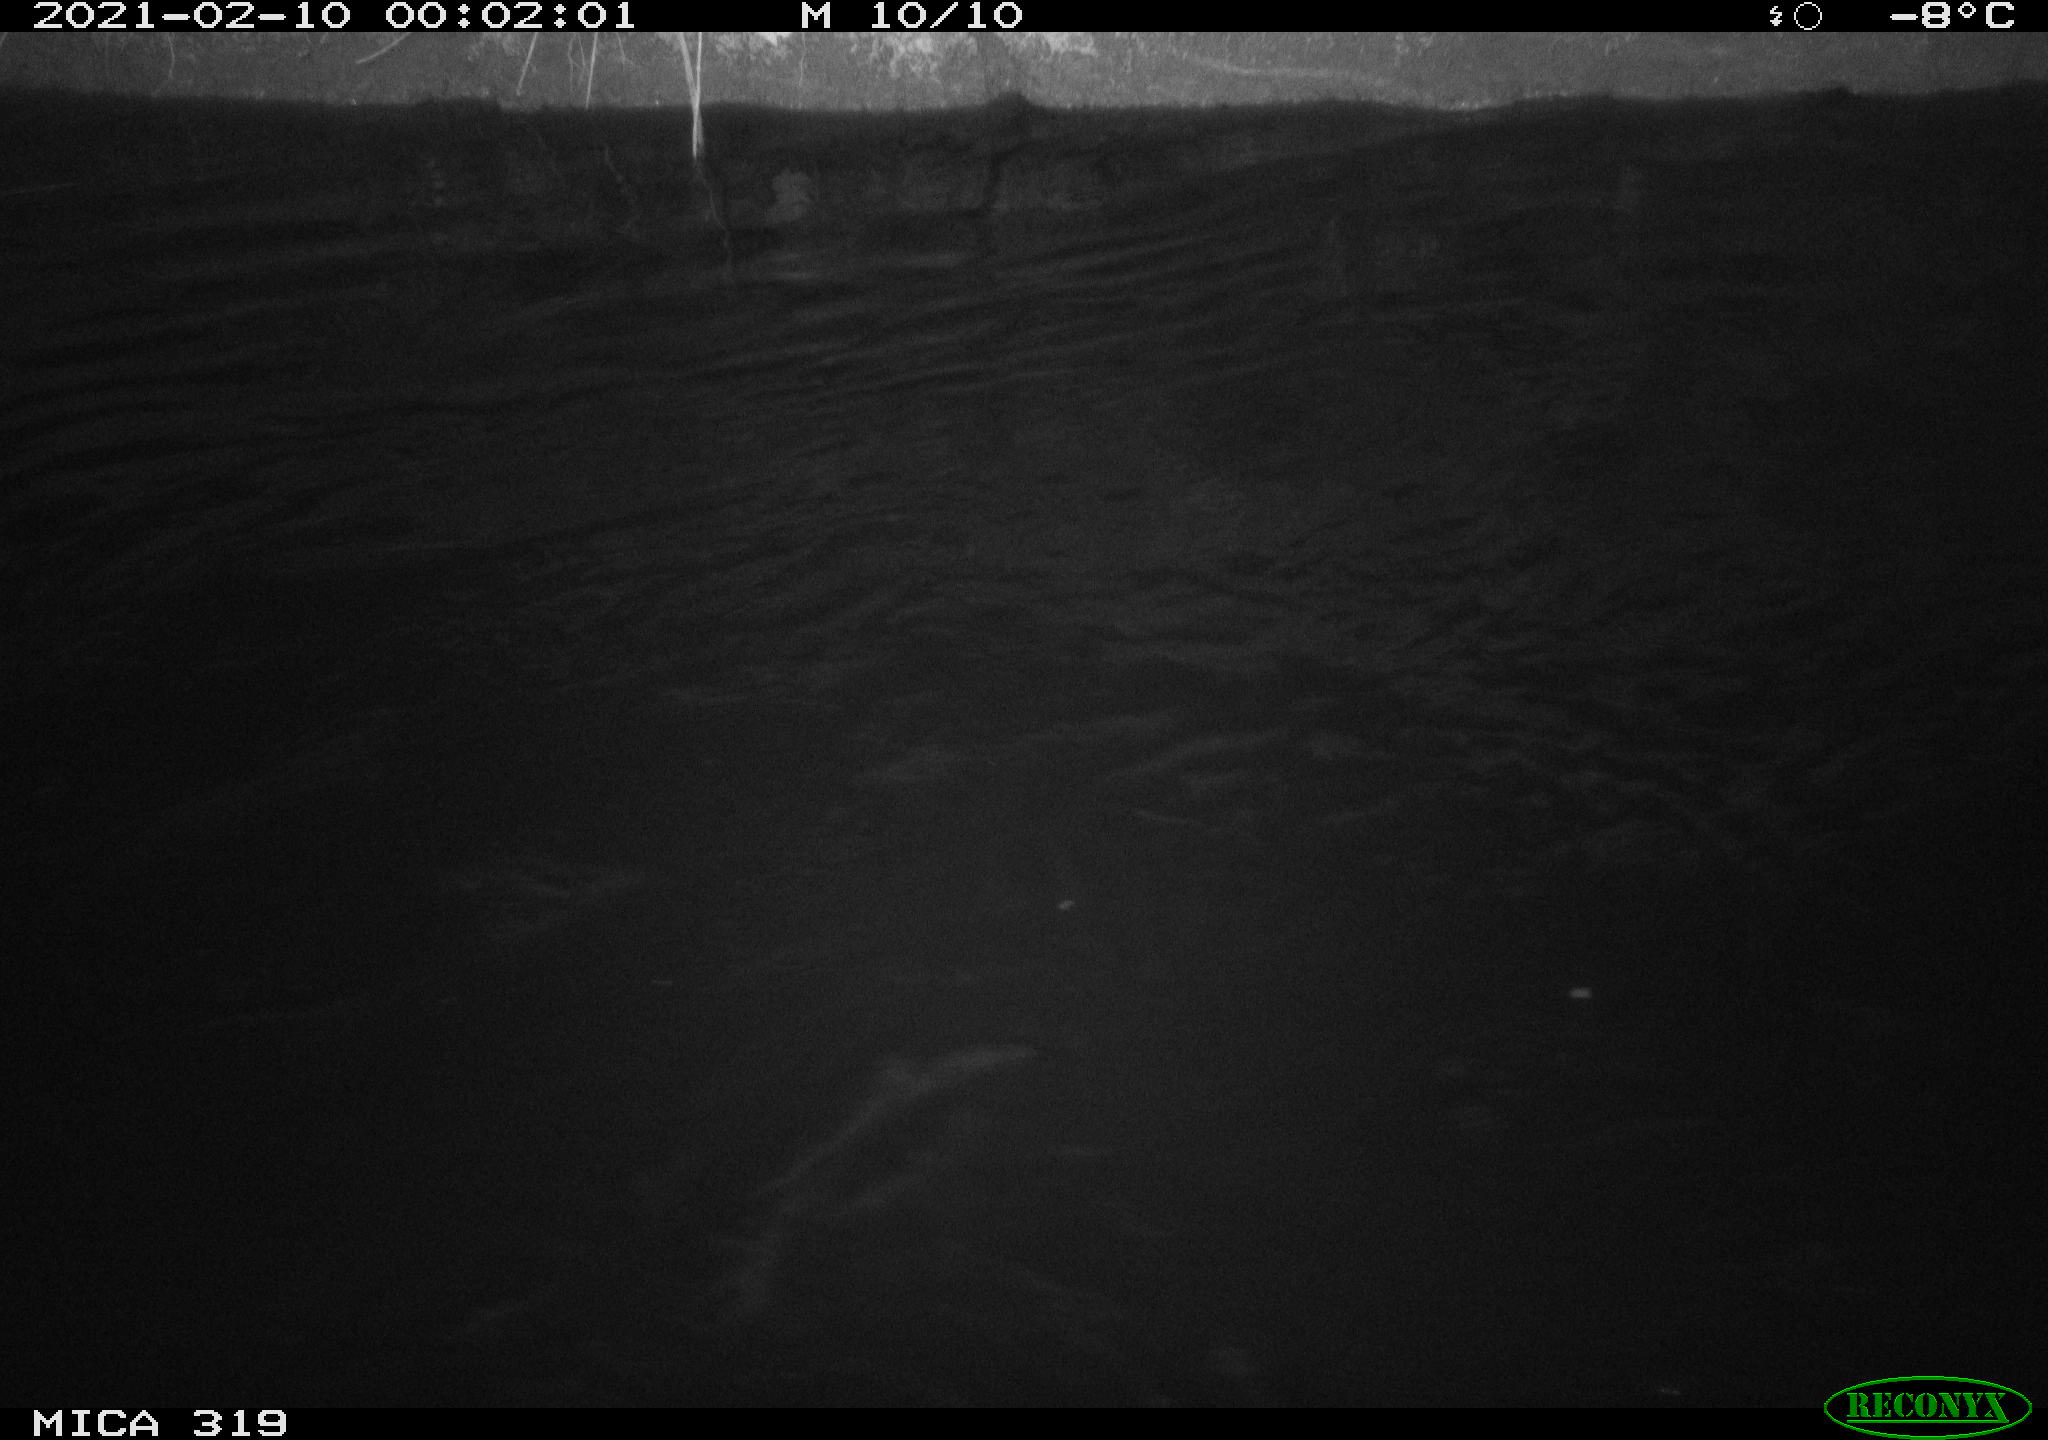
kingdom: Animalia
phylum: Chordata
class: Aves
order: Anseriformes
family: Anatidae
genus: Anas
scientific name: Anas platyrhynchos
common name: Mallard
